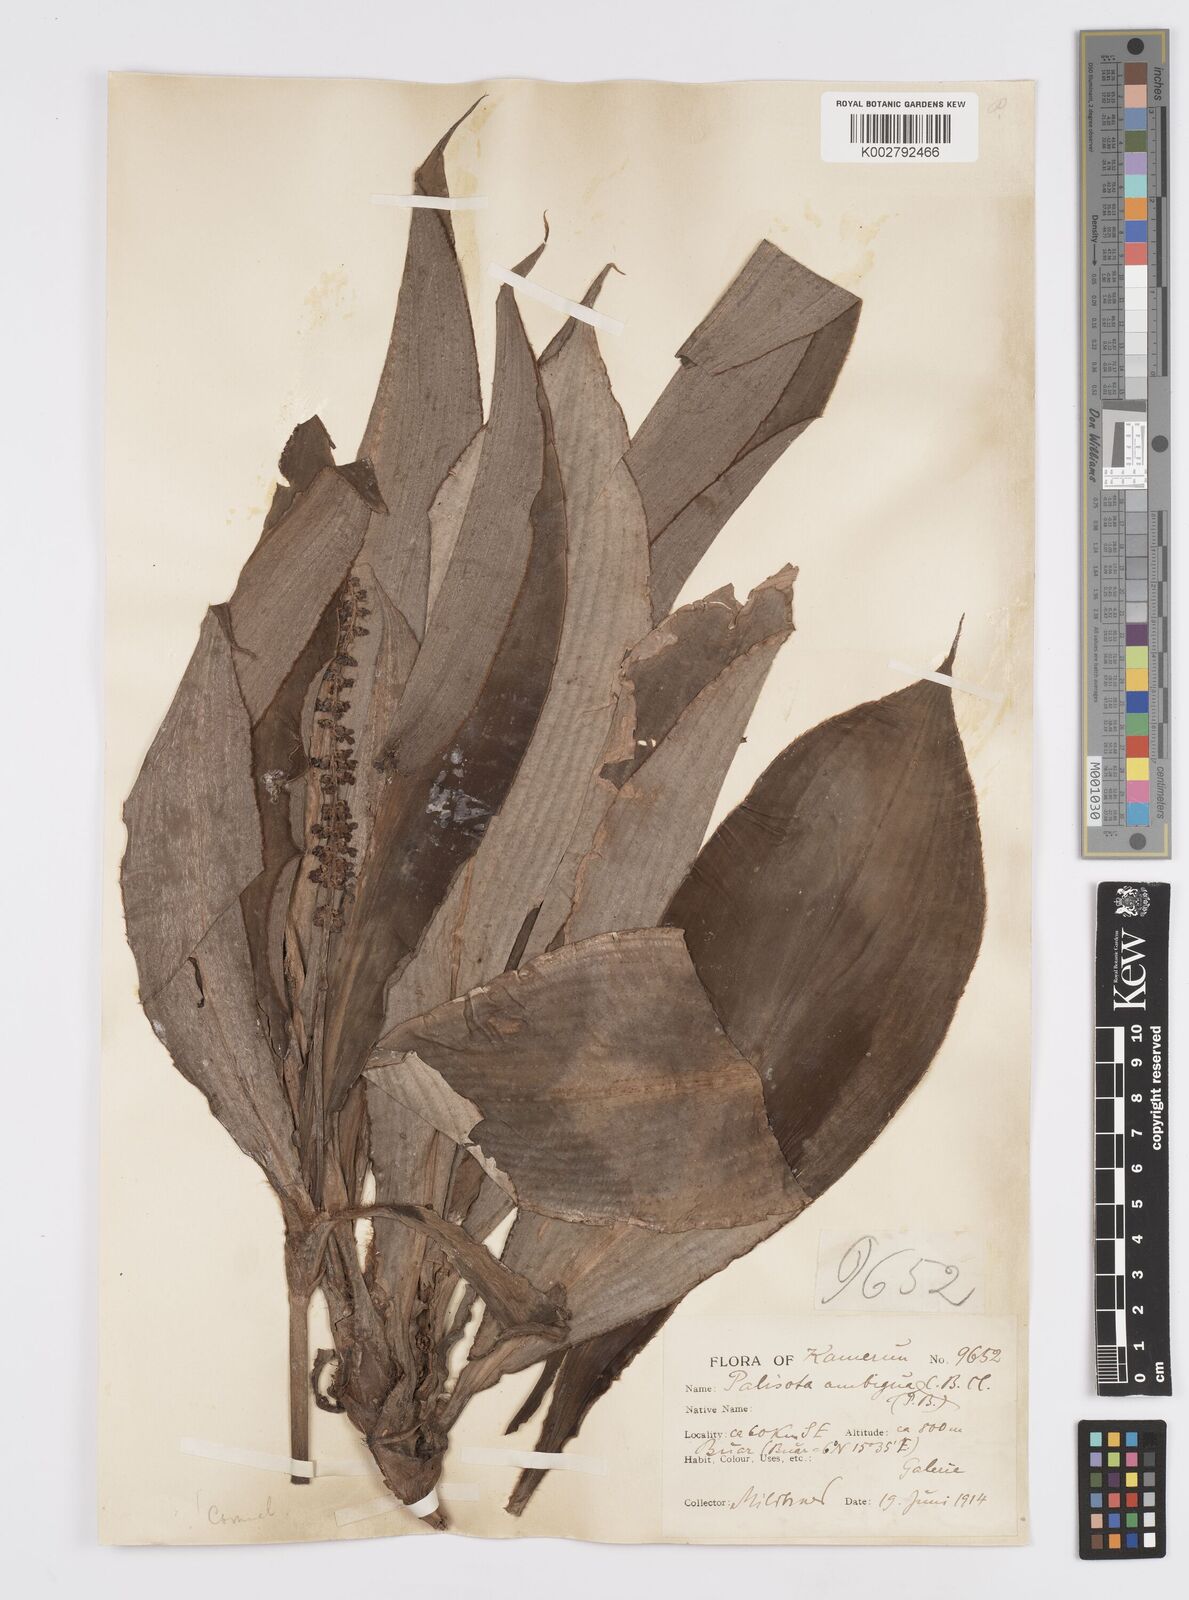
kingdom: Plantae
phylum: Tracheophyta
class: Liliopsida
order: Commelinales
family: Commelinaceae
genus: Palisota
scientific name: Palisota ambigua
